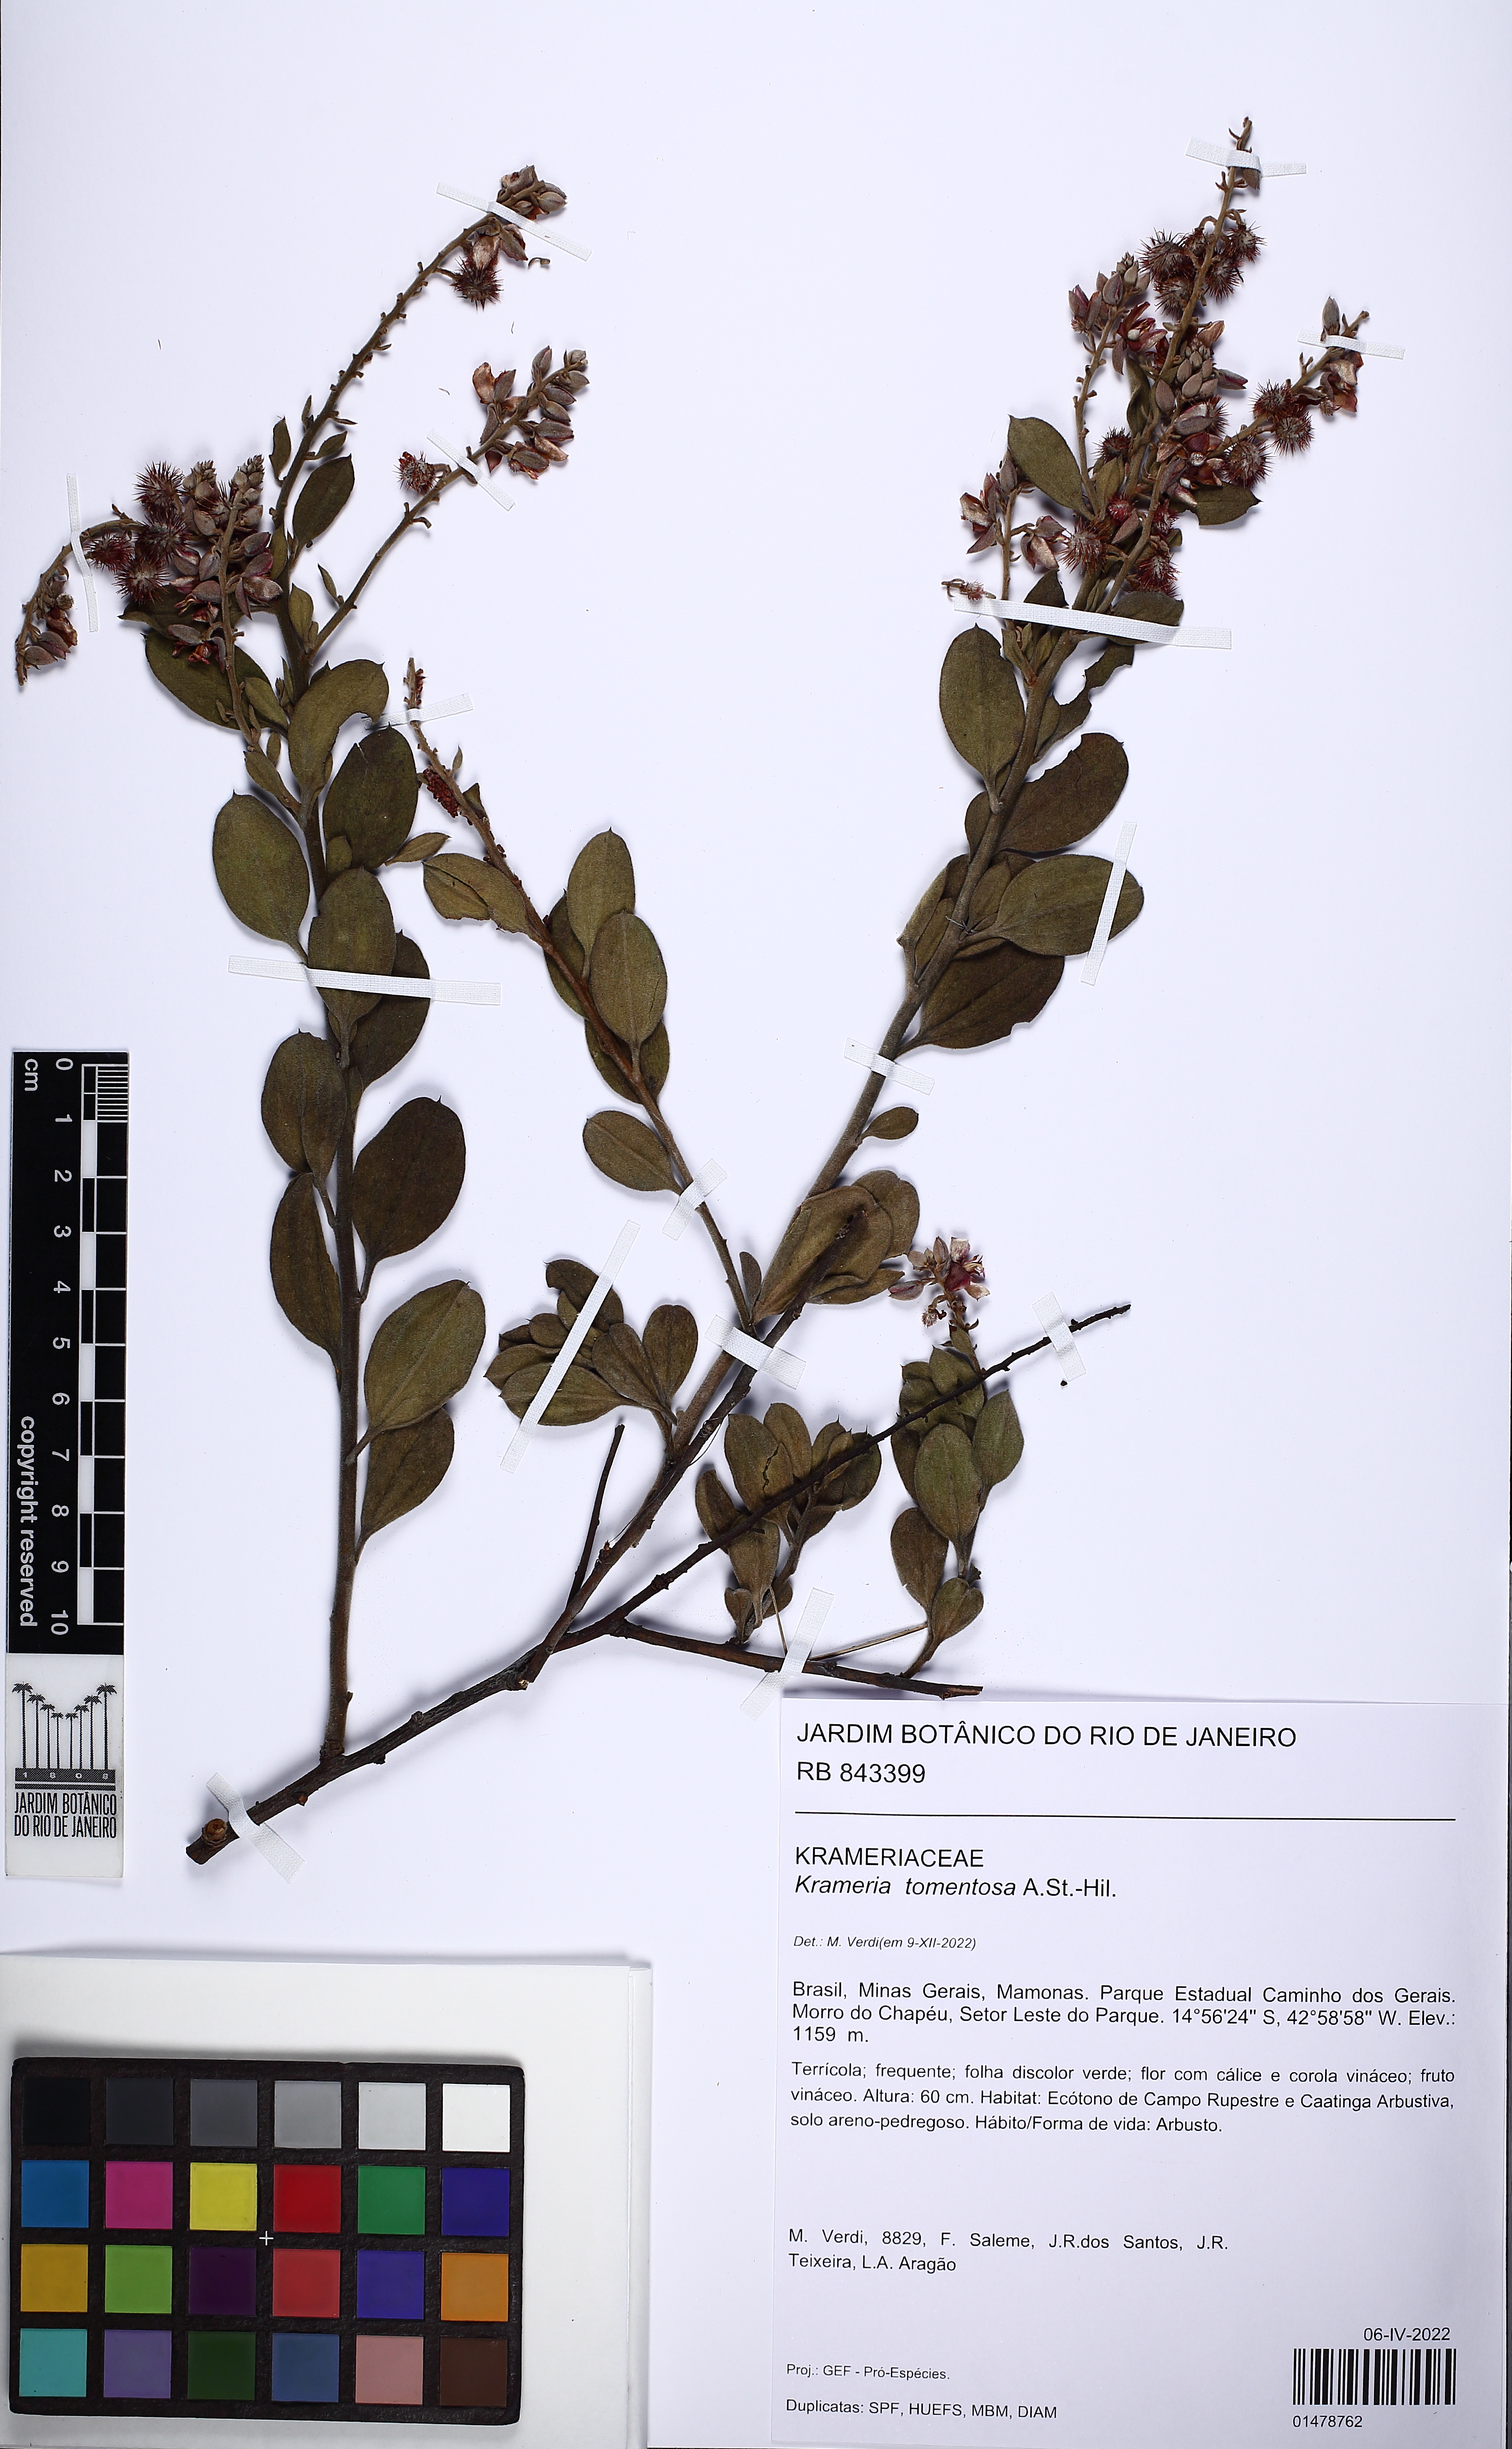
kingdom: Plantae
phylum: Tracheophyta
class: Magnoliopsida
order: Zygophyllales
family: Krameriaceae
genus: Krameria
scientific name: Krameria tomentosa
